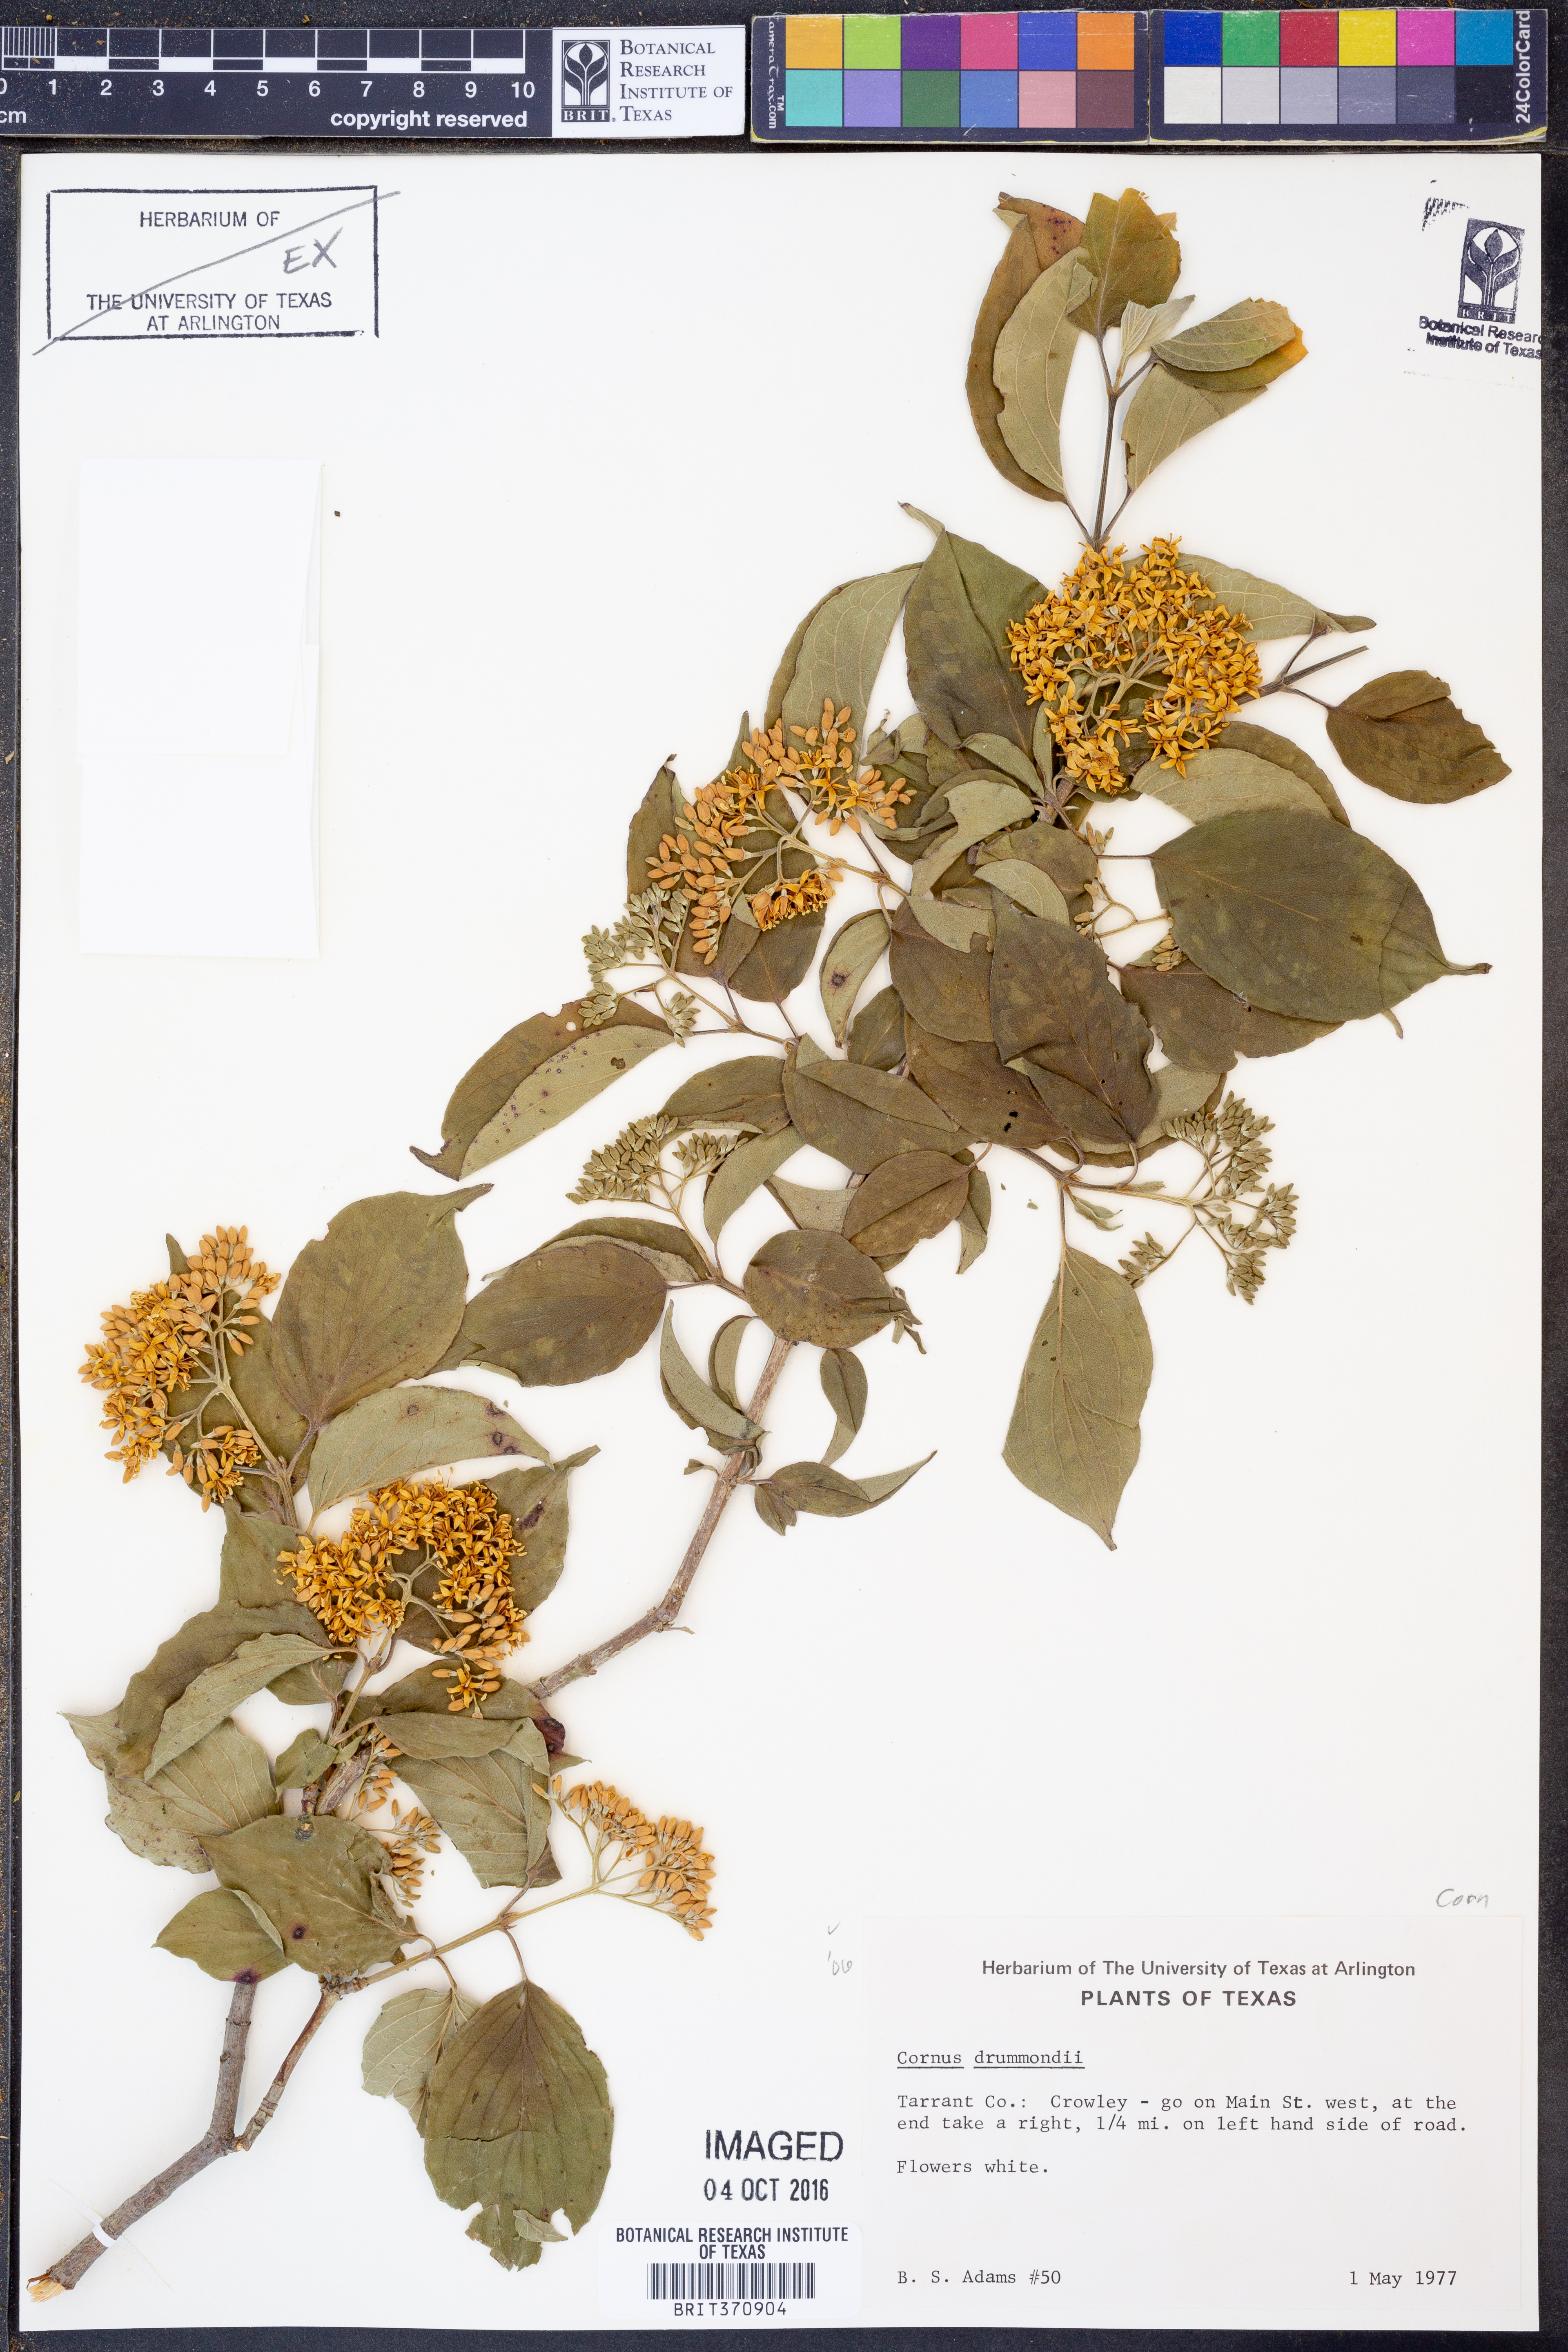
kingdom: Plantae
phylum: Tracheophyta
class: Magnoliopsida
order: Cornales
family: Cornaceae
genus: Cornus
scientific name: Cornus drummondii
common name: Rough-leaf dogwood
